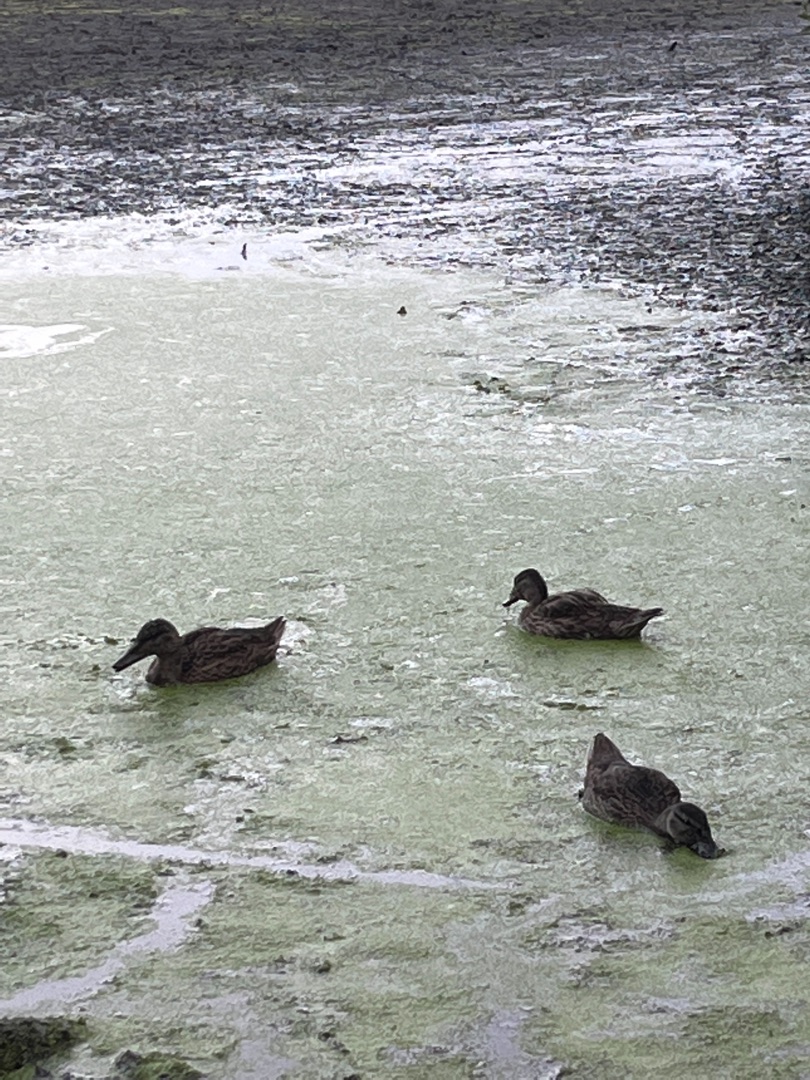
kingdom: Animalia
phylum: Chordata
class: Aves
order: Anseriformes
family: Anatidae
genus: Anas
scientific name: Anas platyrhynchos
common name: Gråand
